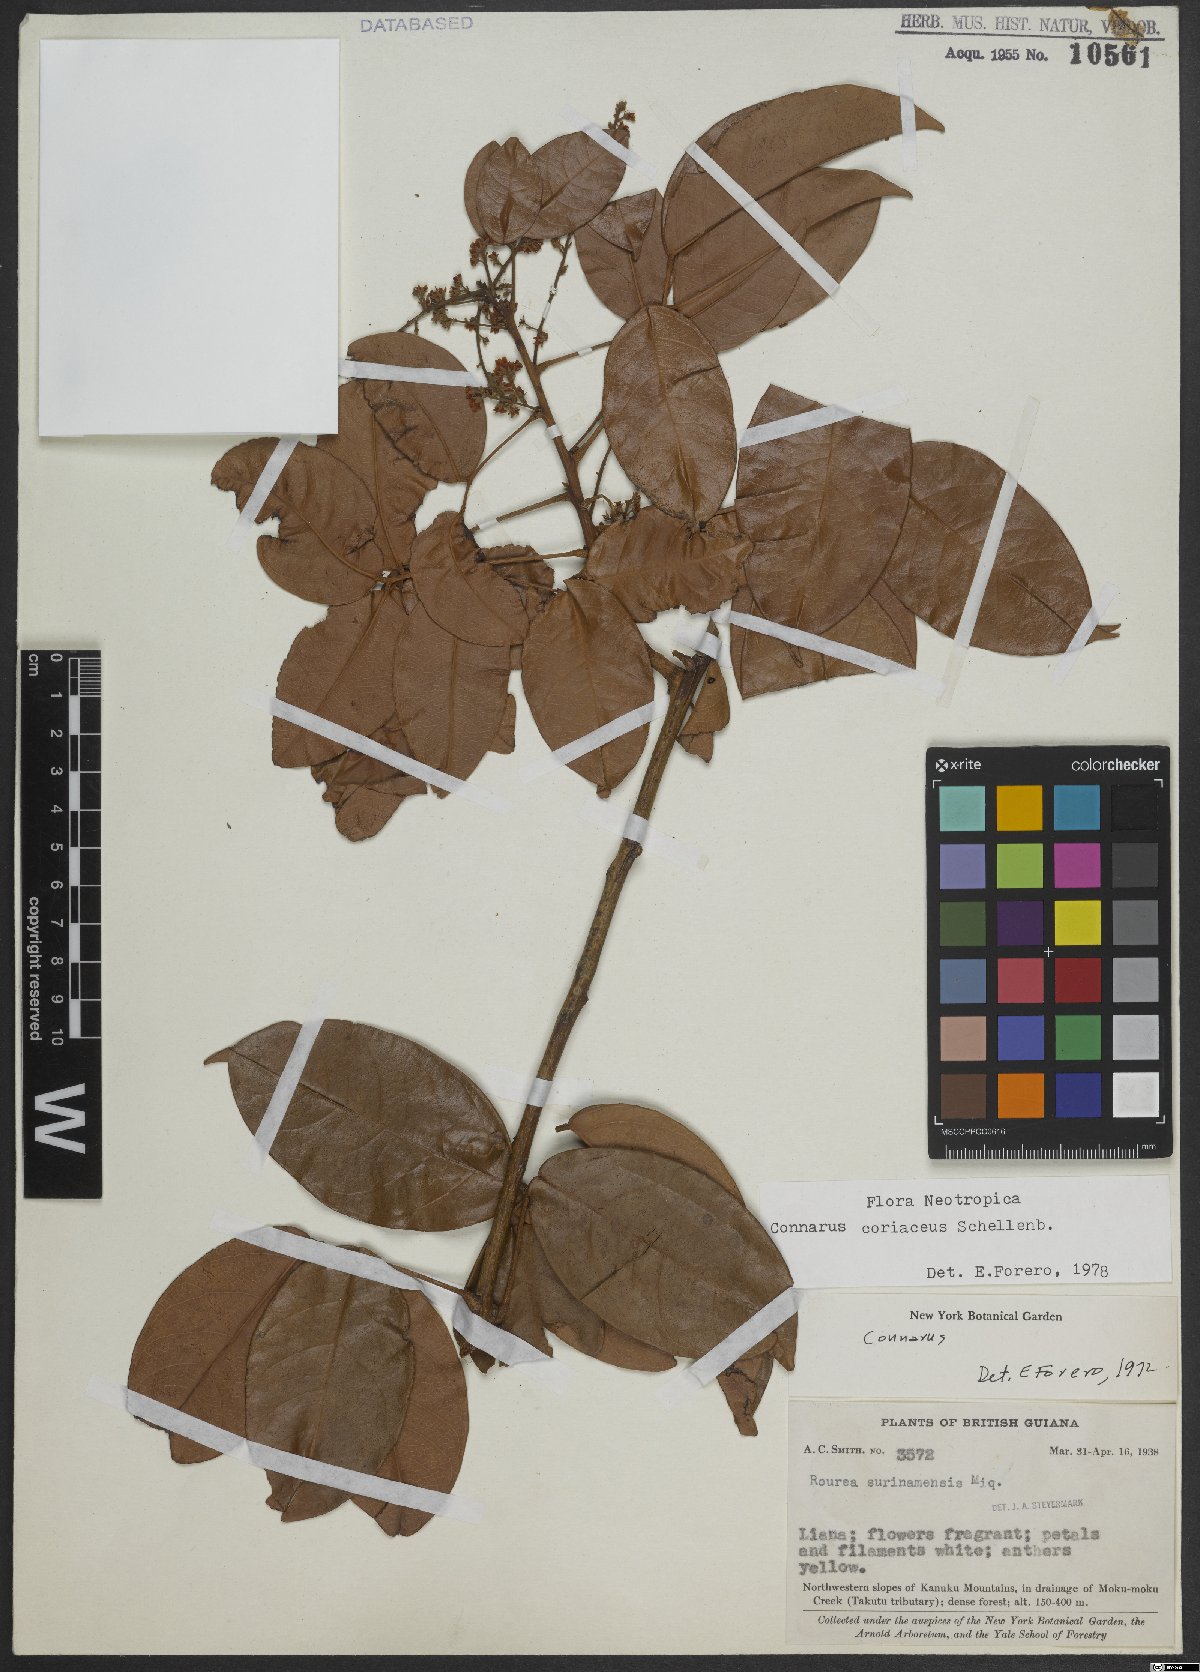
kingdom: Plantae
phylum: Tracheophyta
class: Magnoliopsida
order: Oxalidales
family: Connaraceae
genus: Connarus
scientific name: Connarus coriaceus
